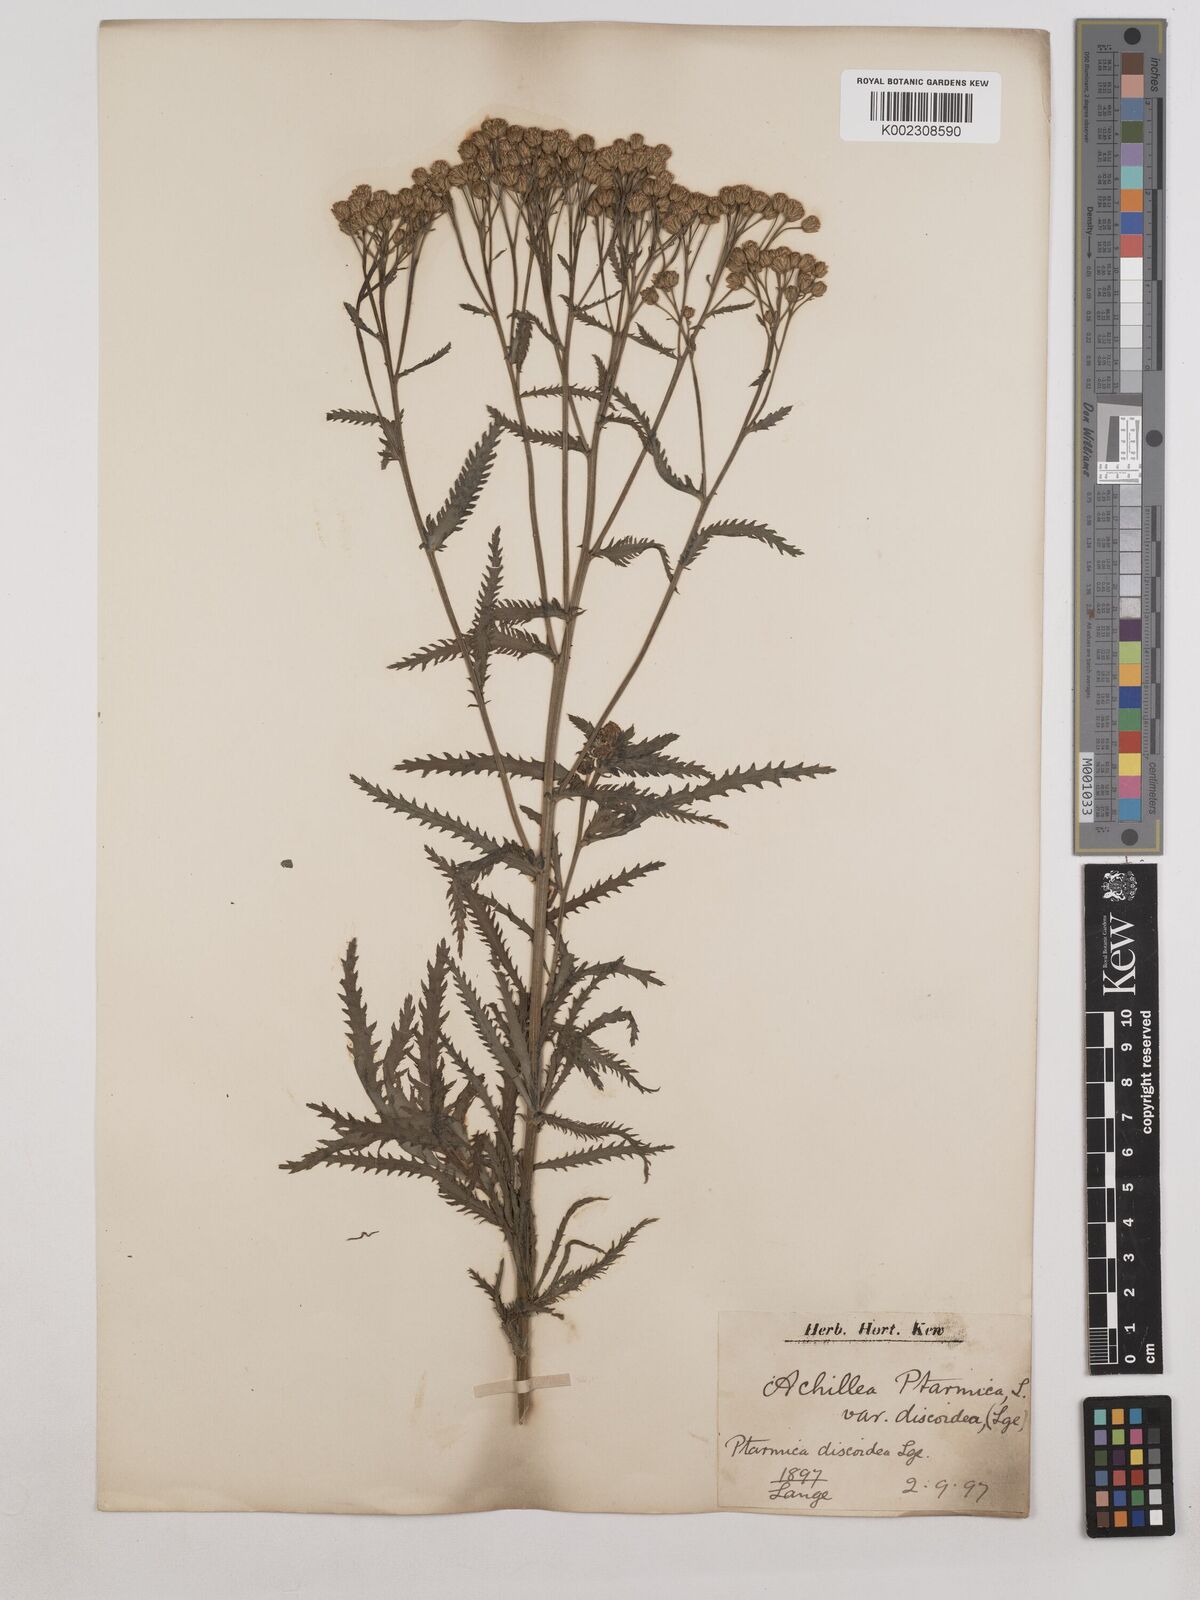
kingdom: Plantae
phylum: Tracheophyta
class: Magnoliopsida
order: Asterales
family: Asteraceae
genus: Achillea
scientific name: Achillea ptarmica
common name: Sneezeweed
